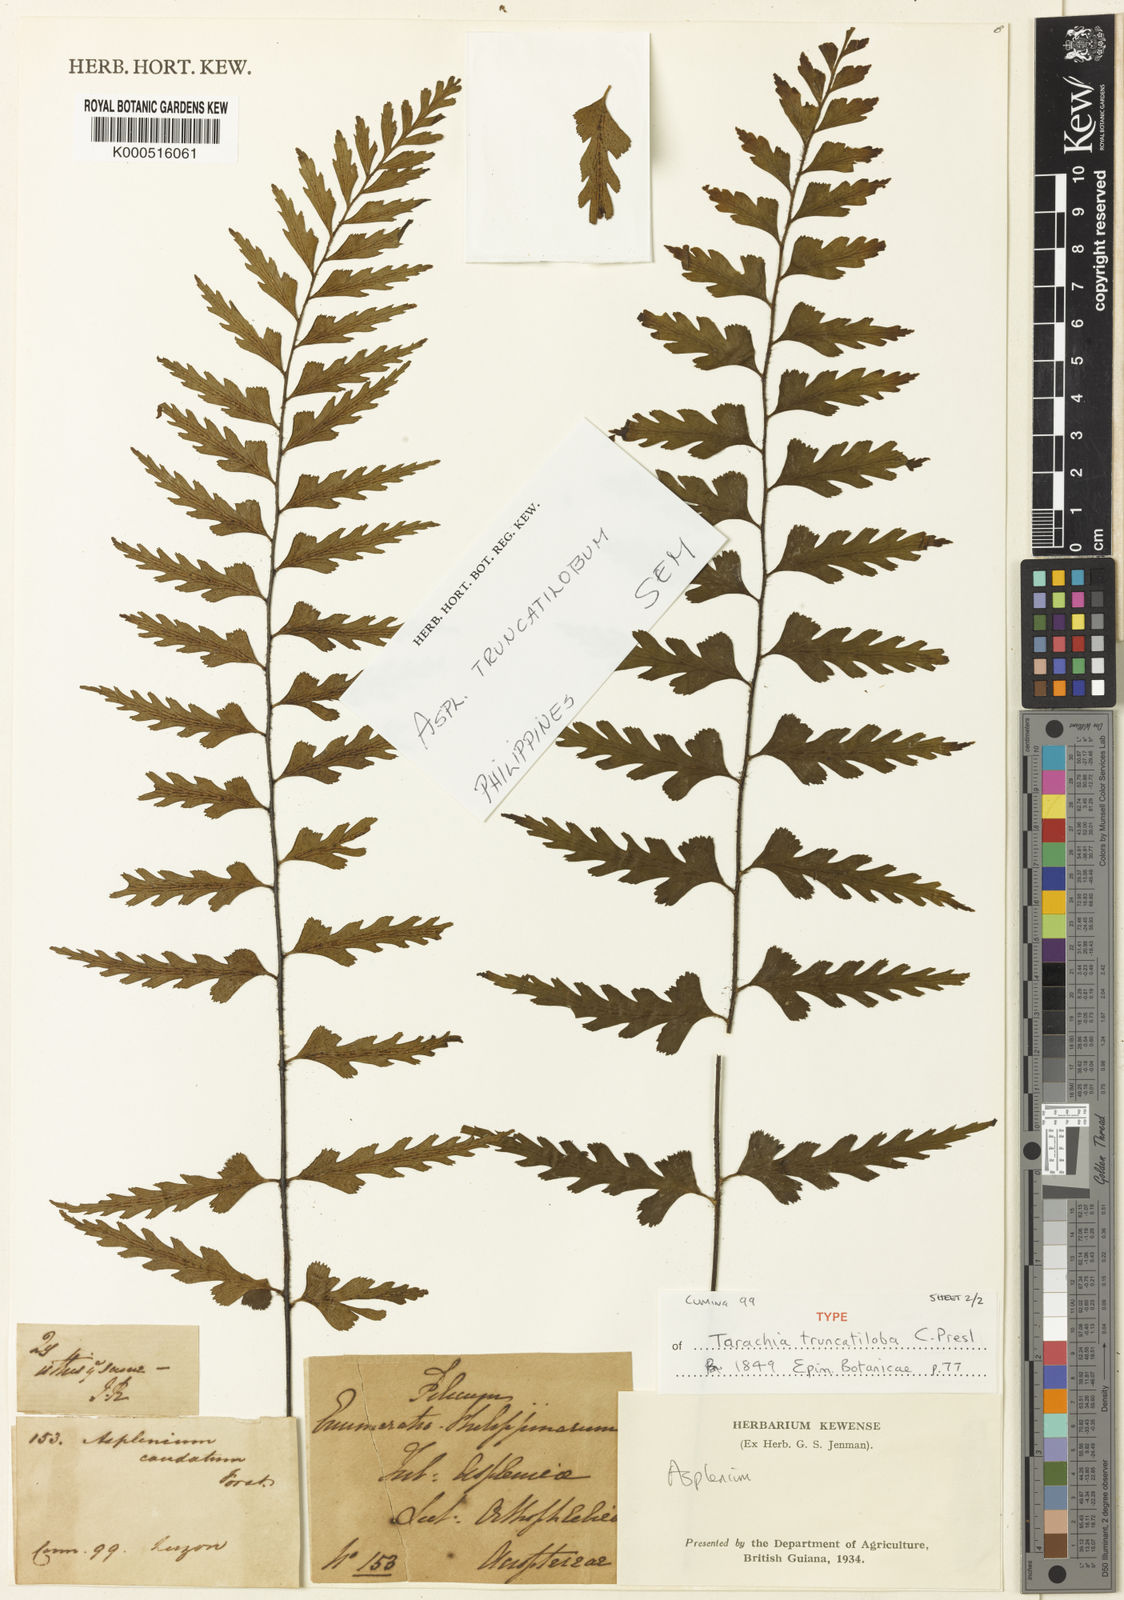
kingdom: Plantae
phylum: Tracheophyta
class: Polypodiopsida
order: Polypodiales
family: Aspleniaceae
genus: Asplenium
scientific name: Asplenium truncatilobum
